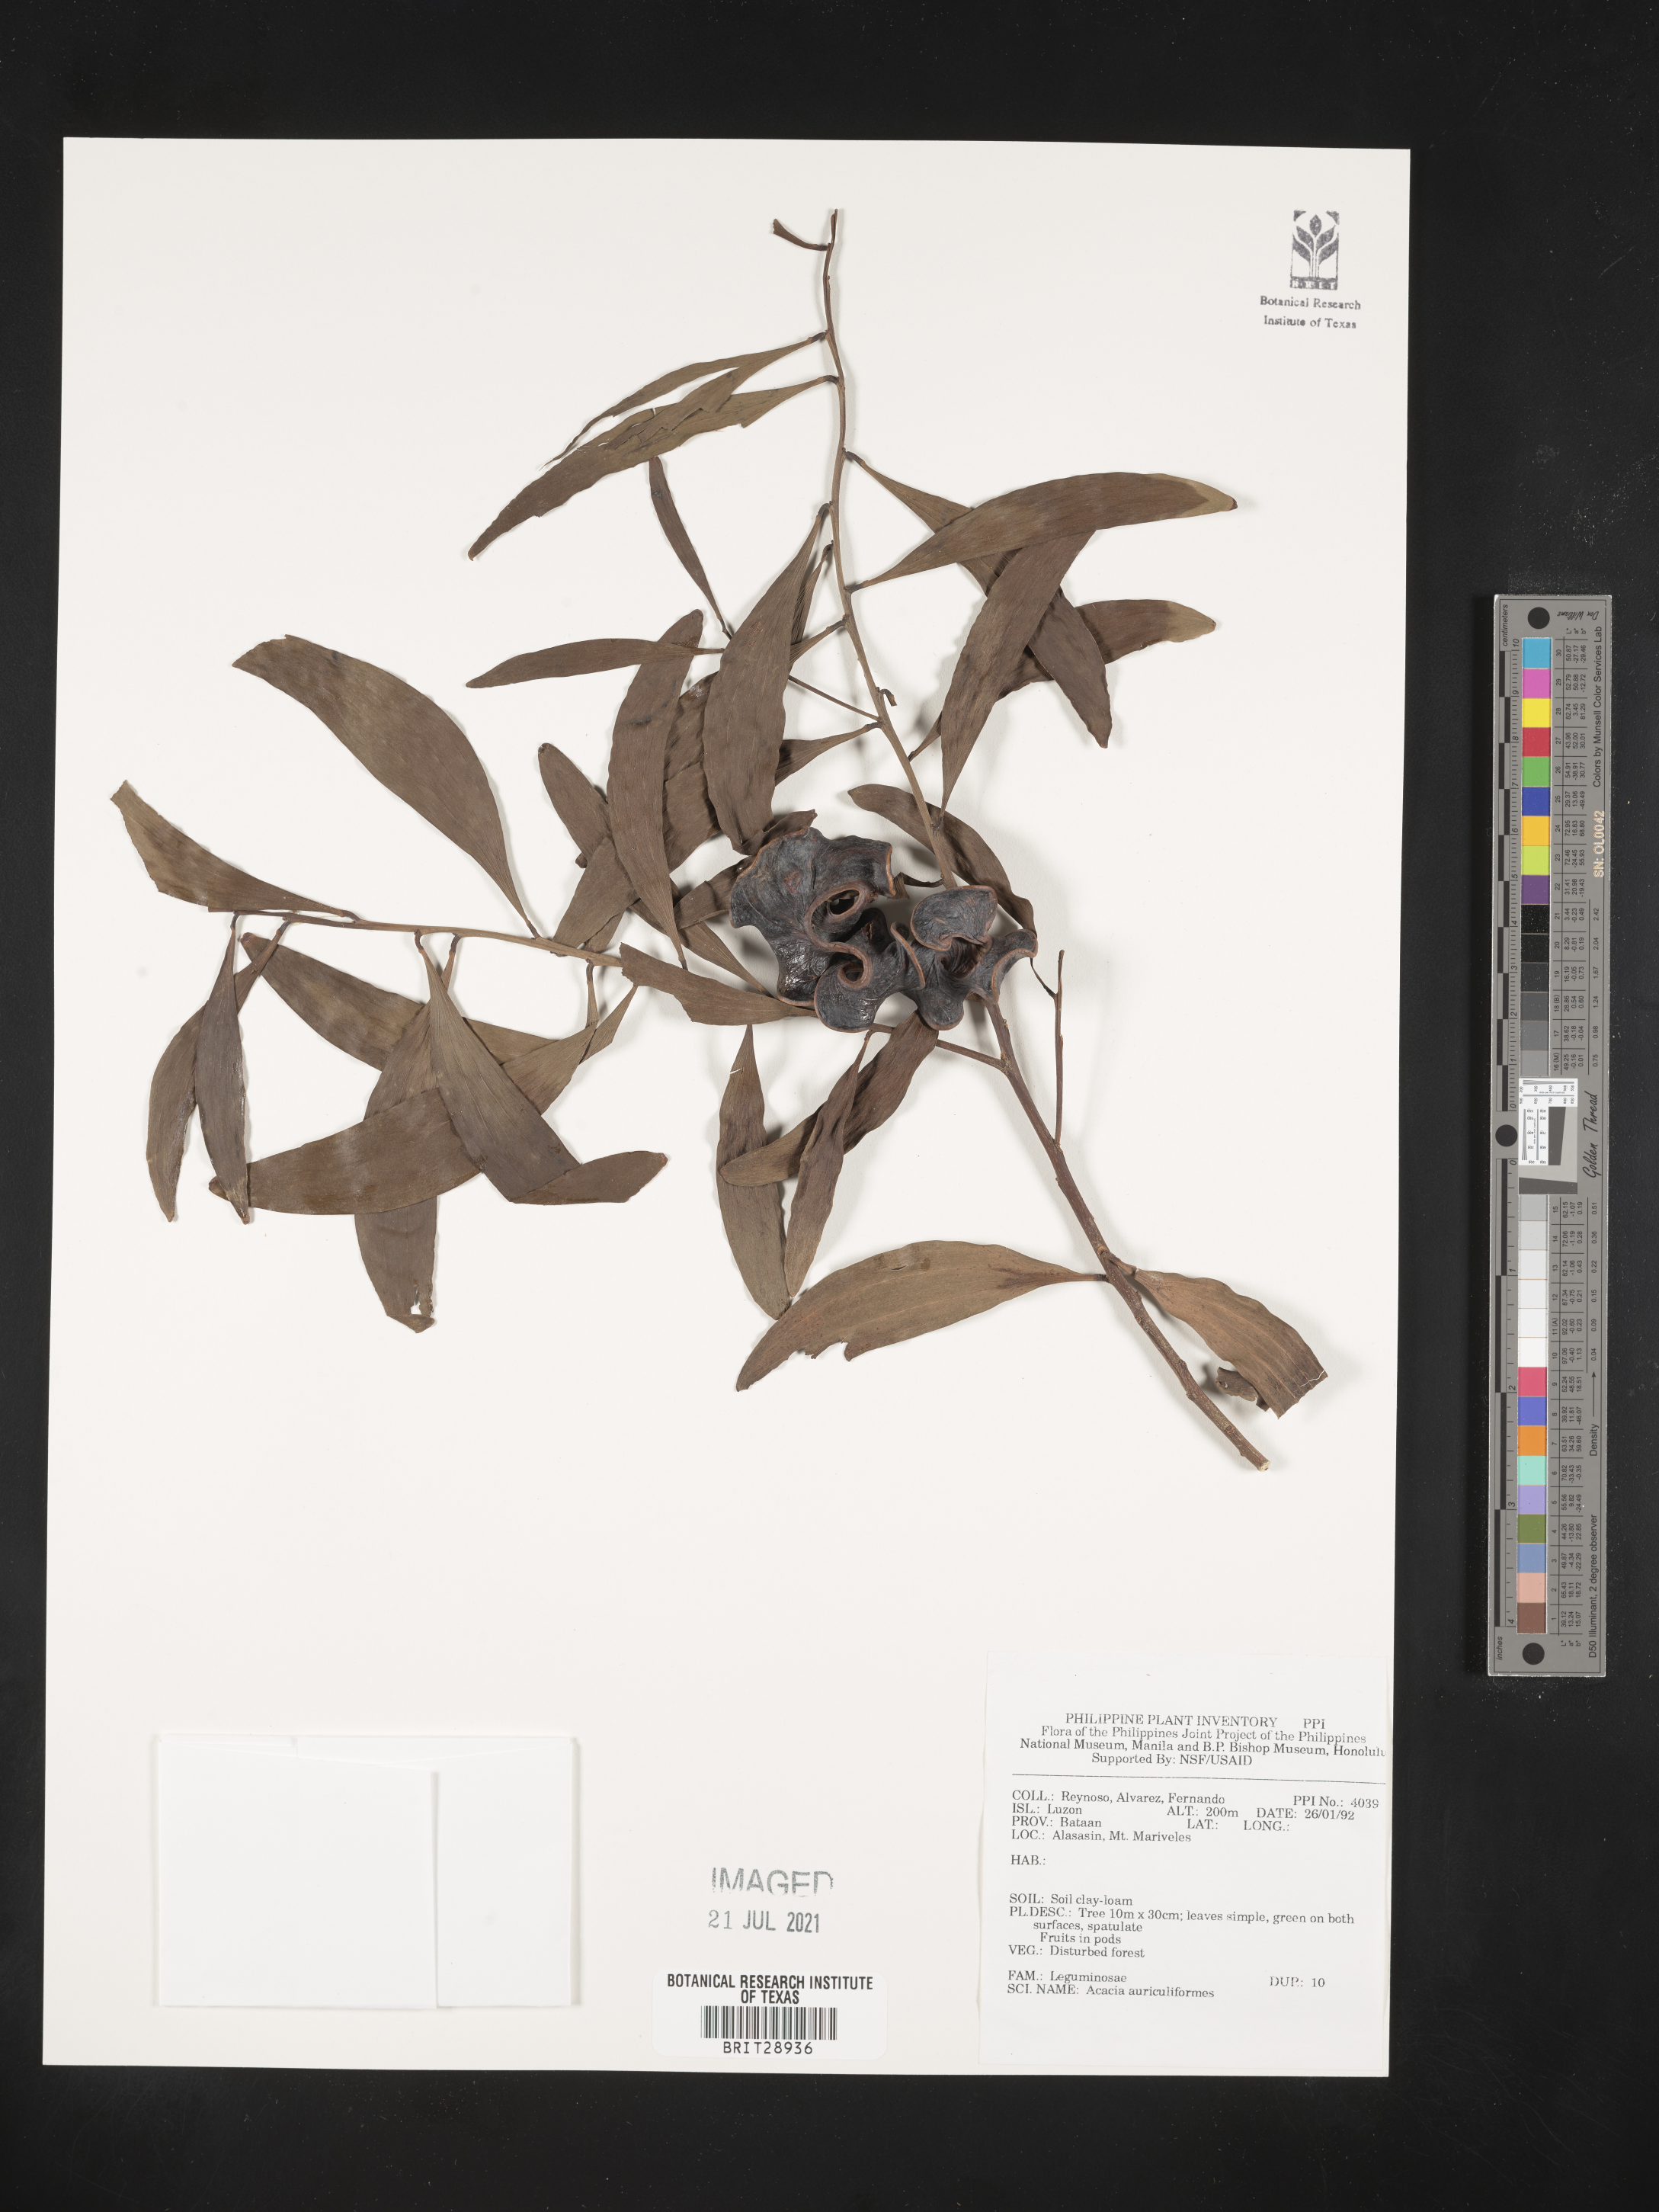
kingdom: Plantae
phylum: Tracheophyta
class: Magnoliopsida
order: Fabales
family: Fabaceae
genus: Acacia
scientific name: Acacia auriculiformis
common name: Earleaf acacia
